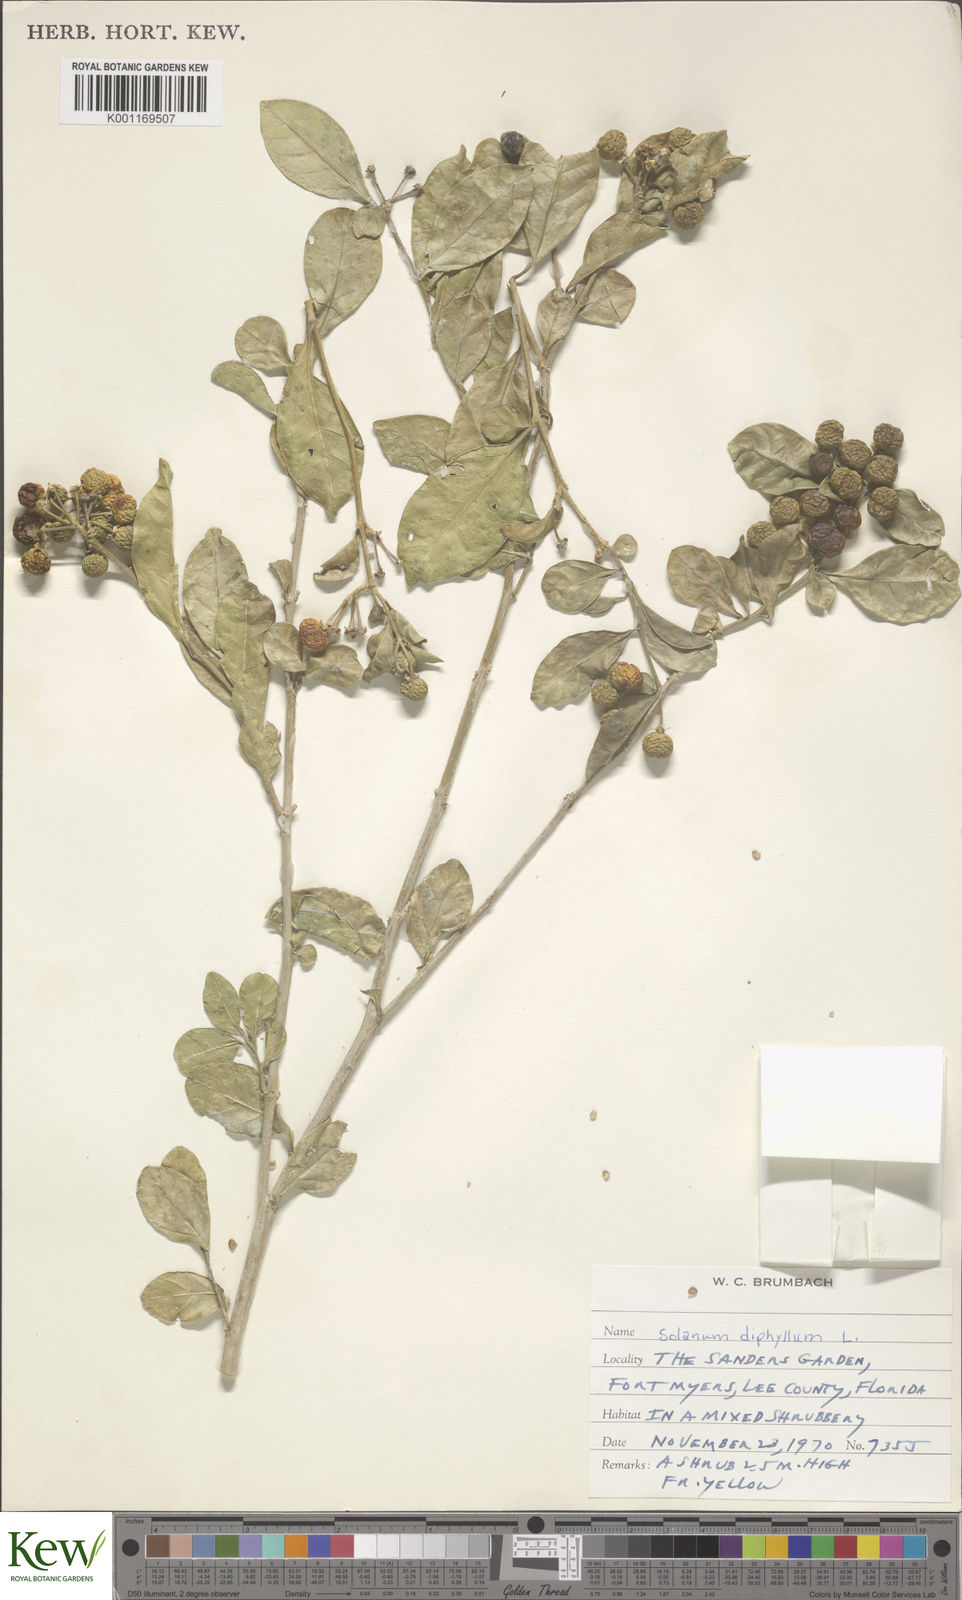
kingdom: Plantae
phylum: Tracheophyta
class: Magnoliopsida
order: Solanales
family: Solanaceae
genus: Solanum
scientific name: Solanum diphyllum
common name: Twoleaf nightshade
